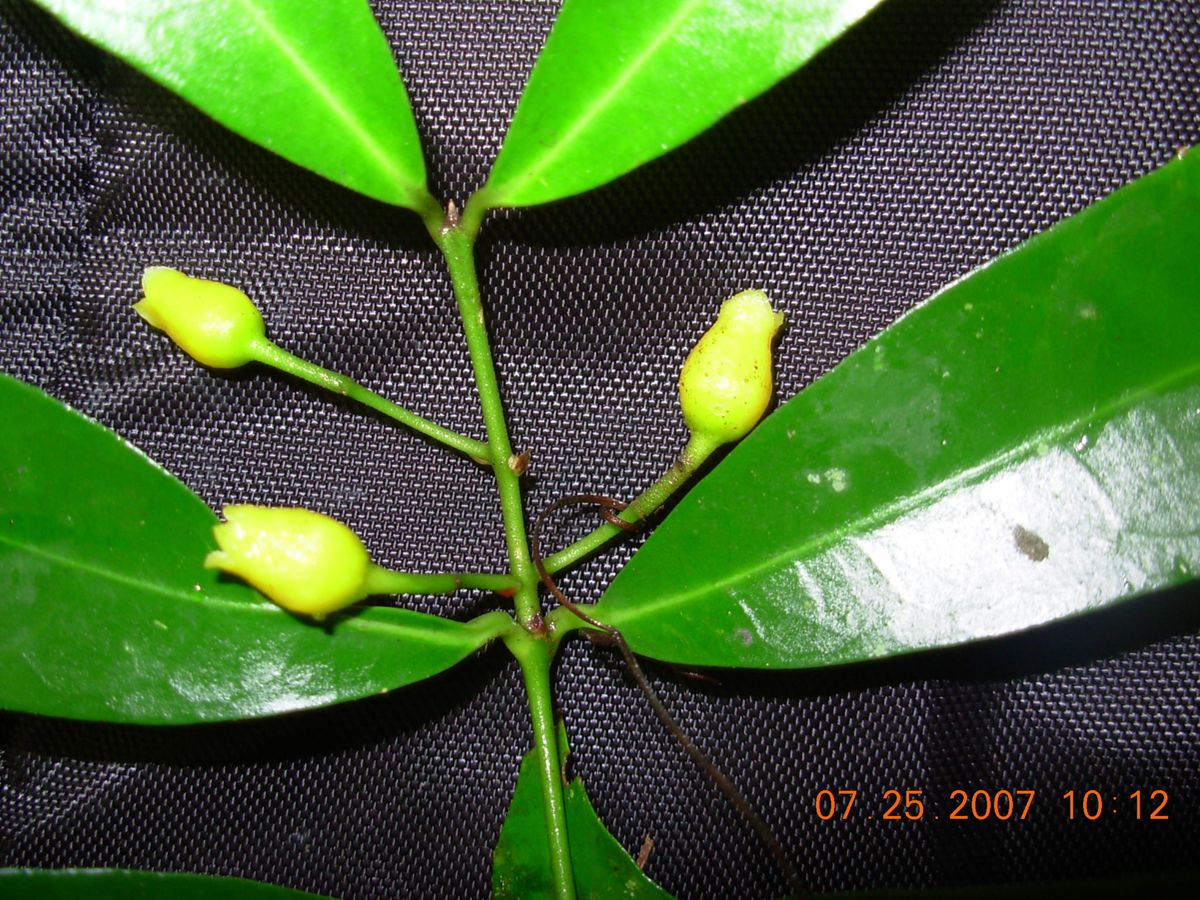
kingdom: Plantae
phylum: Tracheophyta
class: Magnoliopsida
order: Laurales
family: Monimiaceae
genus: Mollinedia
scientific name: Mollinedia viridiflora
